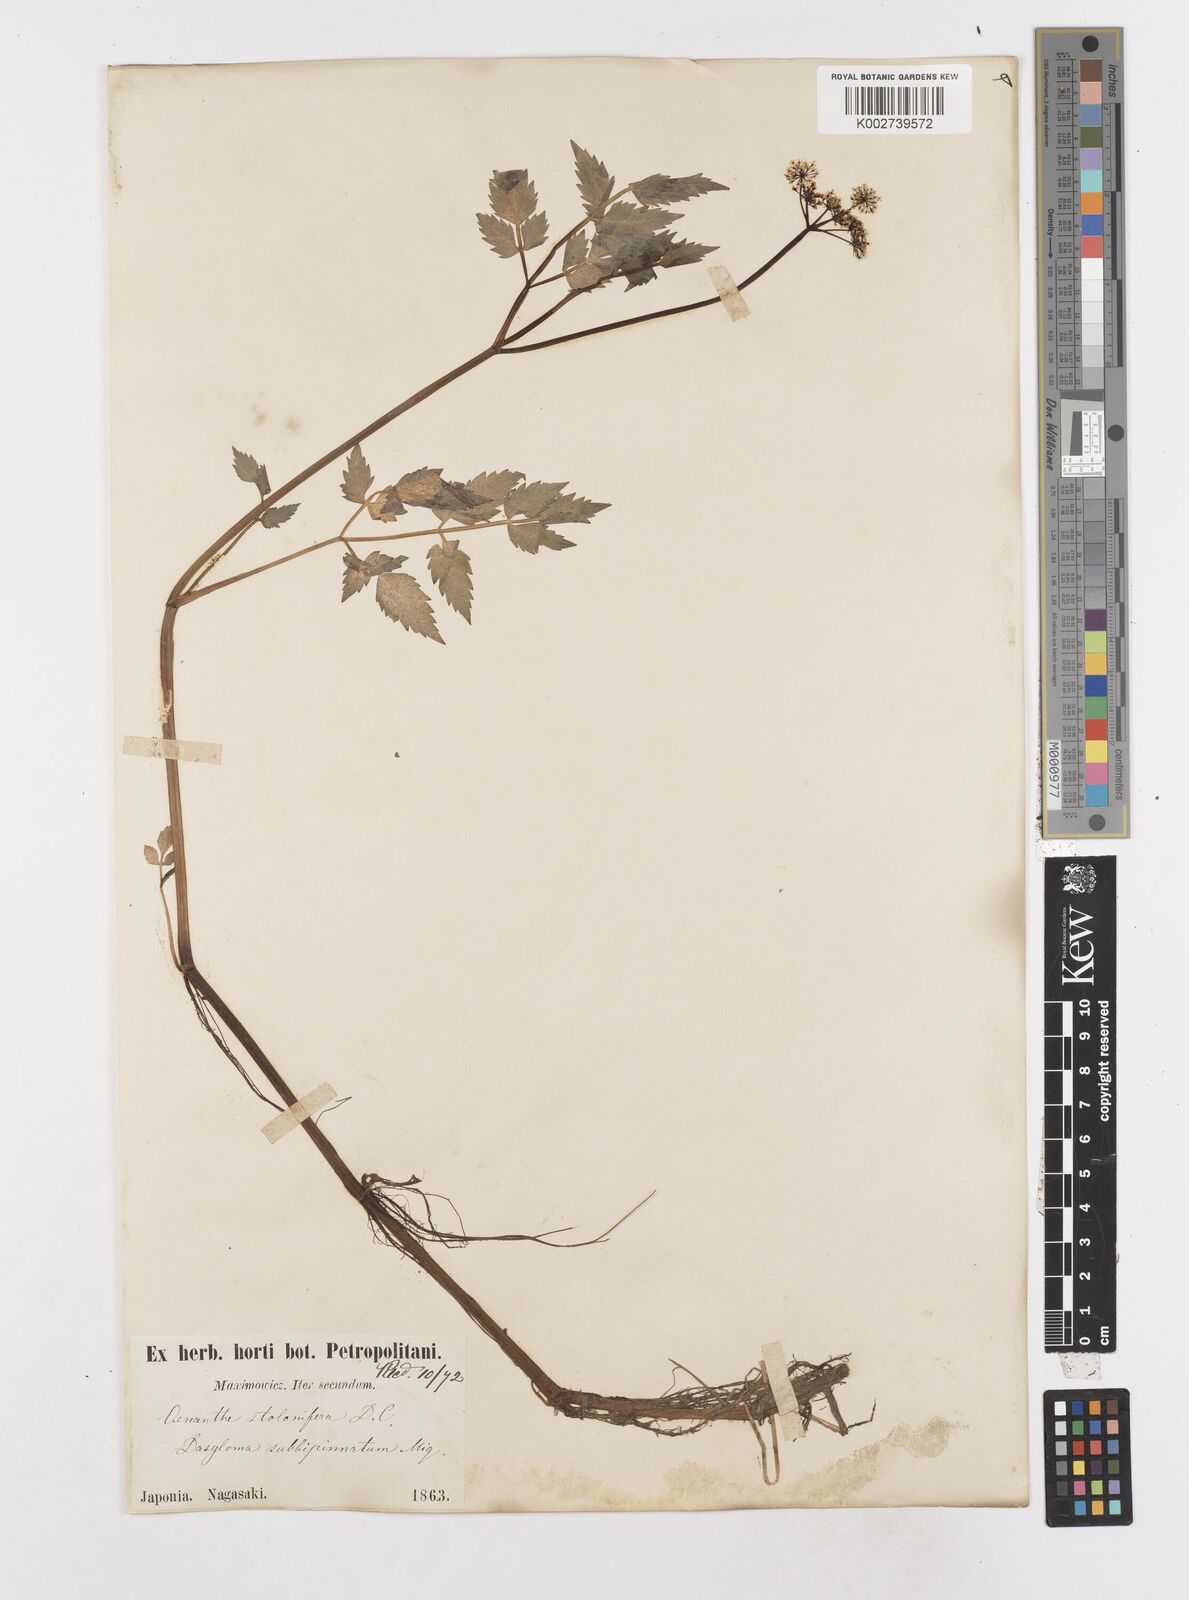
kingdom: Plantae
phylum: Tracheophyta
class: Magnoliopsida
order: Apiales
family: Apiaceae
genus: Oenanthe
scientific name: Oenanthe javanica
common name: Java water-dropwort
